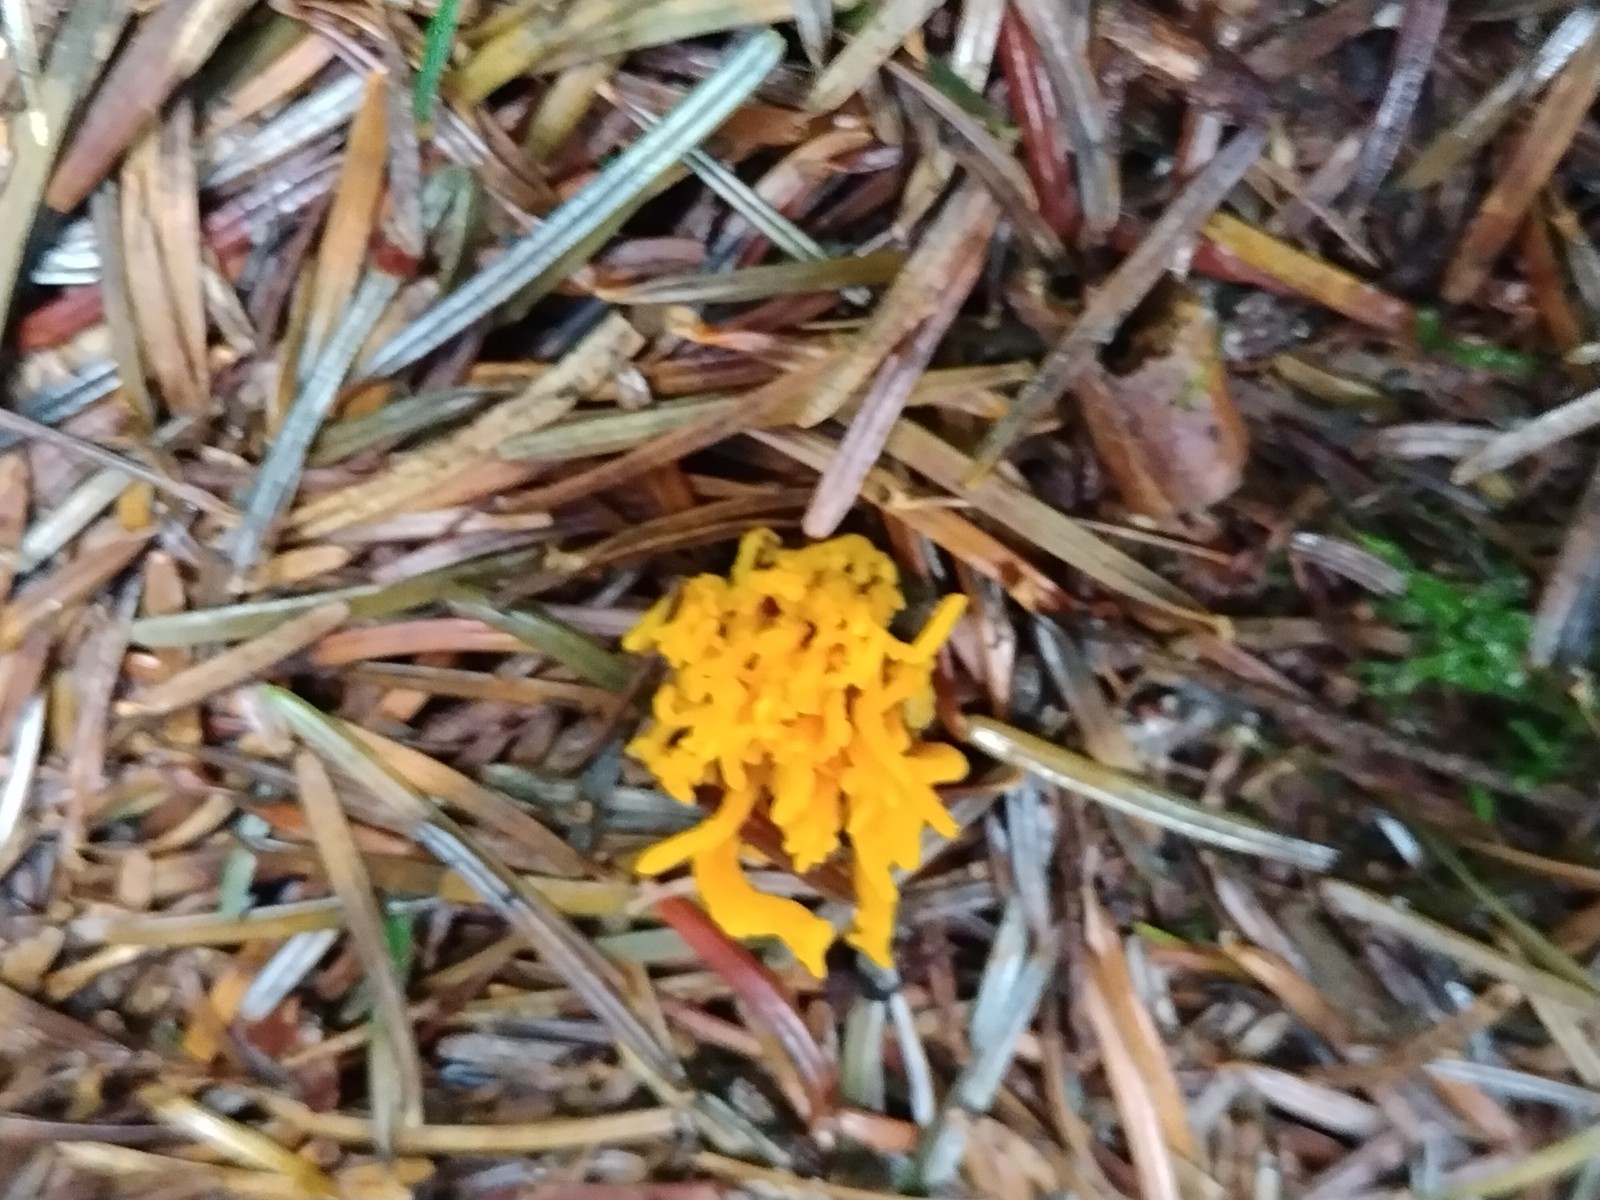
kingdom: Fungi
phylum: Basidiomycota
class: Dacrymycetes
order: Dacrymycetales
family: Dacrymycetaceae
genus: Calocera
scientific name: Calocera viscosa
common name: almindelig guldgaffel
